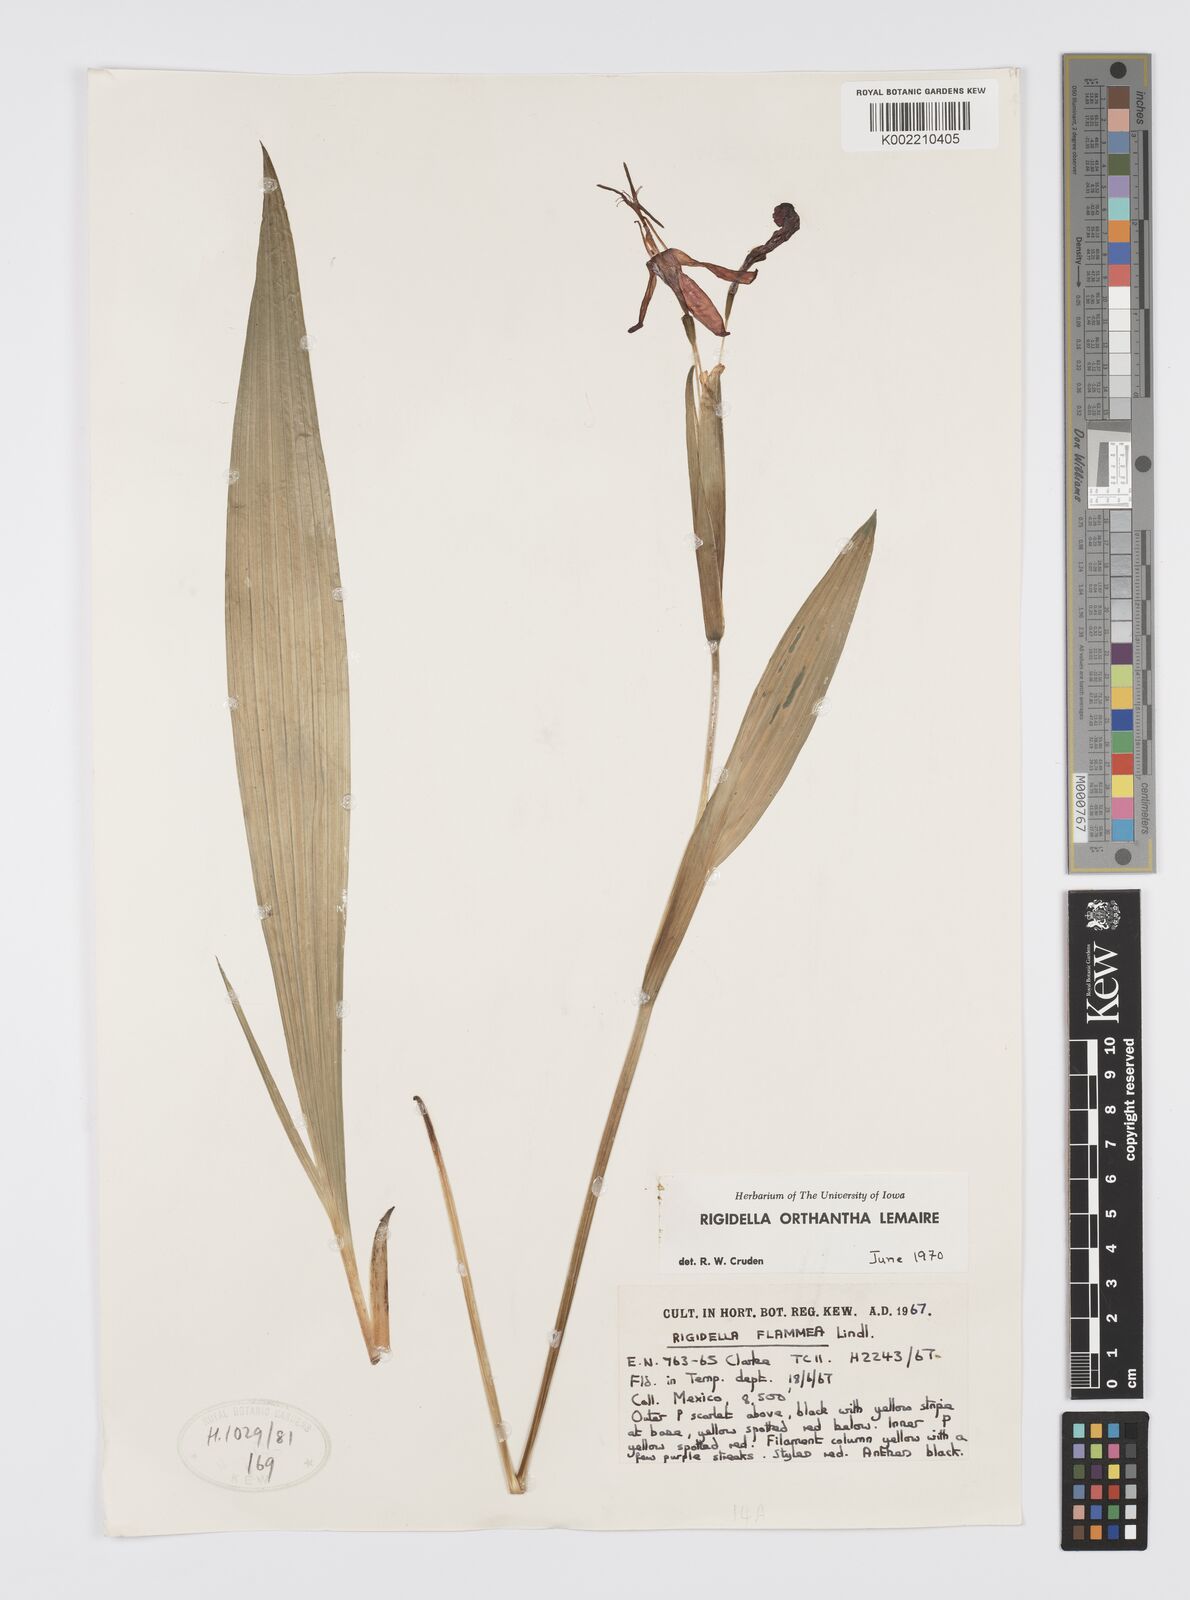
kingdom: Plantae
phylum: Tracheophyta
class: Liliopsida
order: Asparagales
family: Iridaceae
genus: Tigridia
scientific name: Tigridia orthantha
